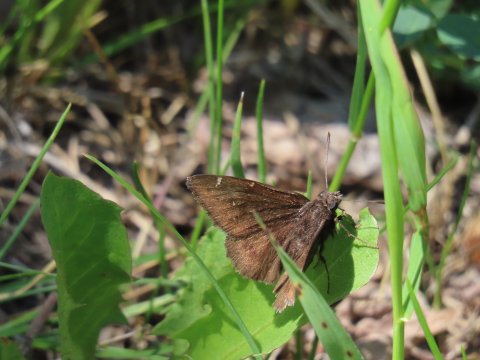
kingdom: Animalia
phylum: Arthropoda
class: Insecta
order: Lepidoptera
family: Hesperiidae
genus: Autochton
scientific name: Autochton
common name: Northern Cloudywing
